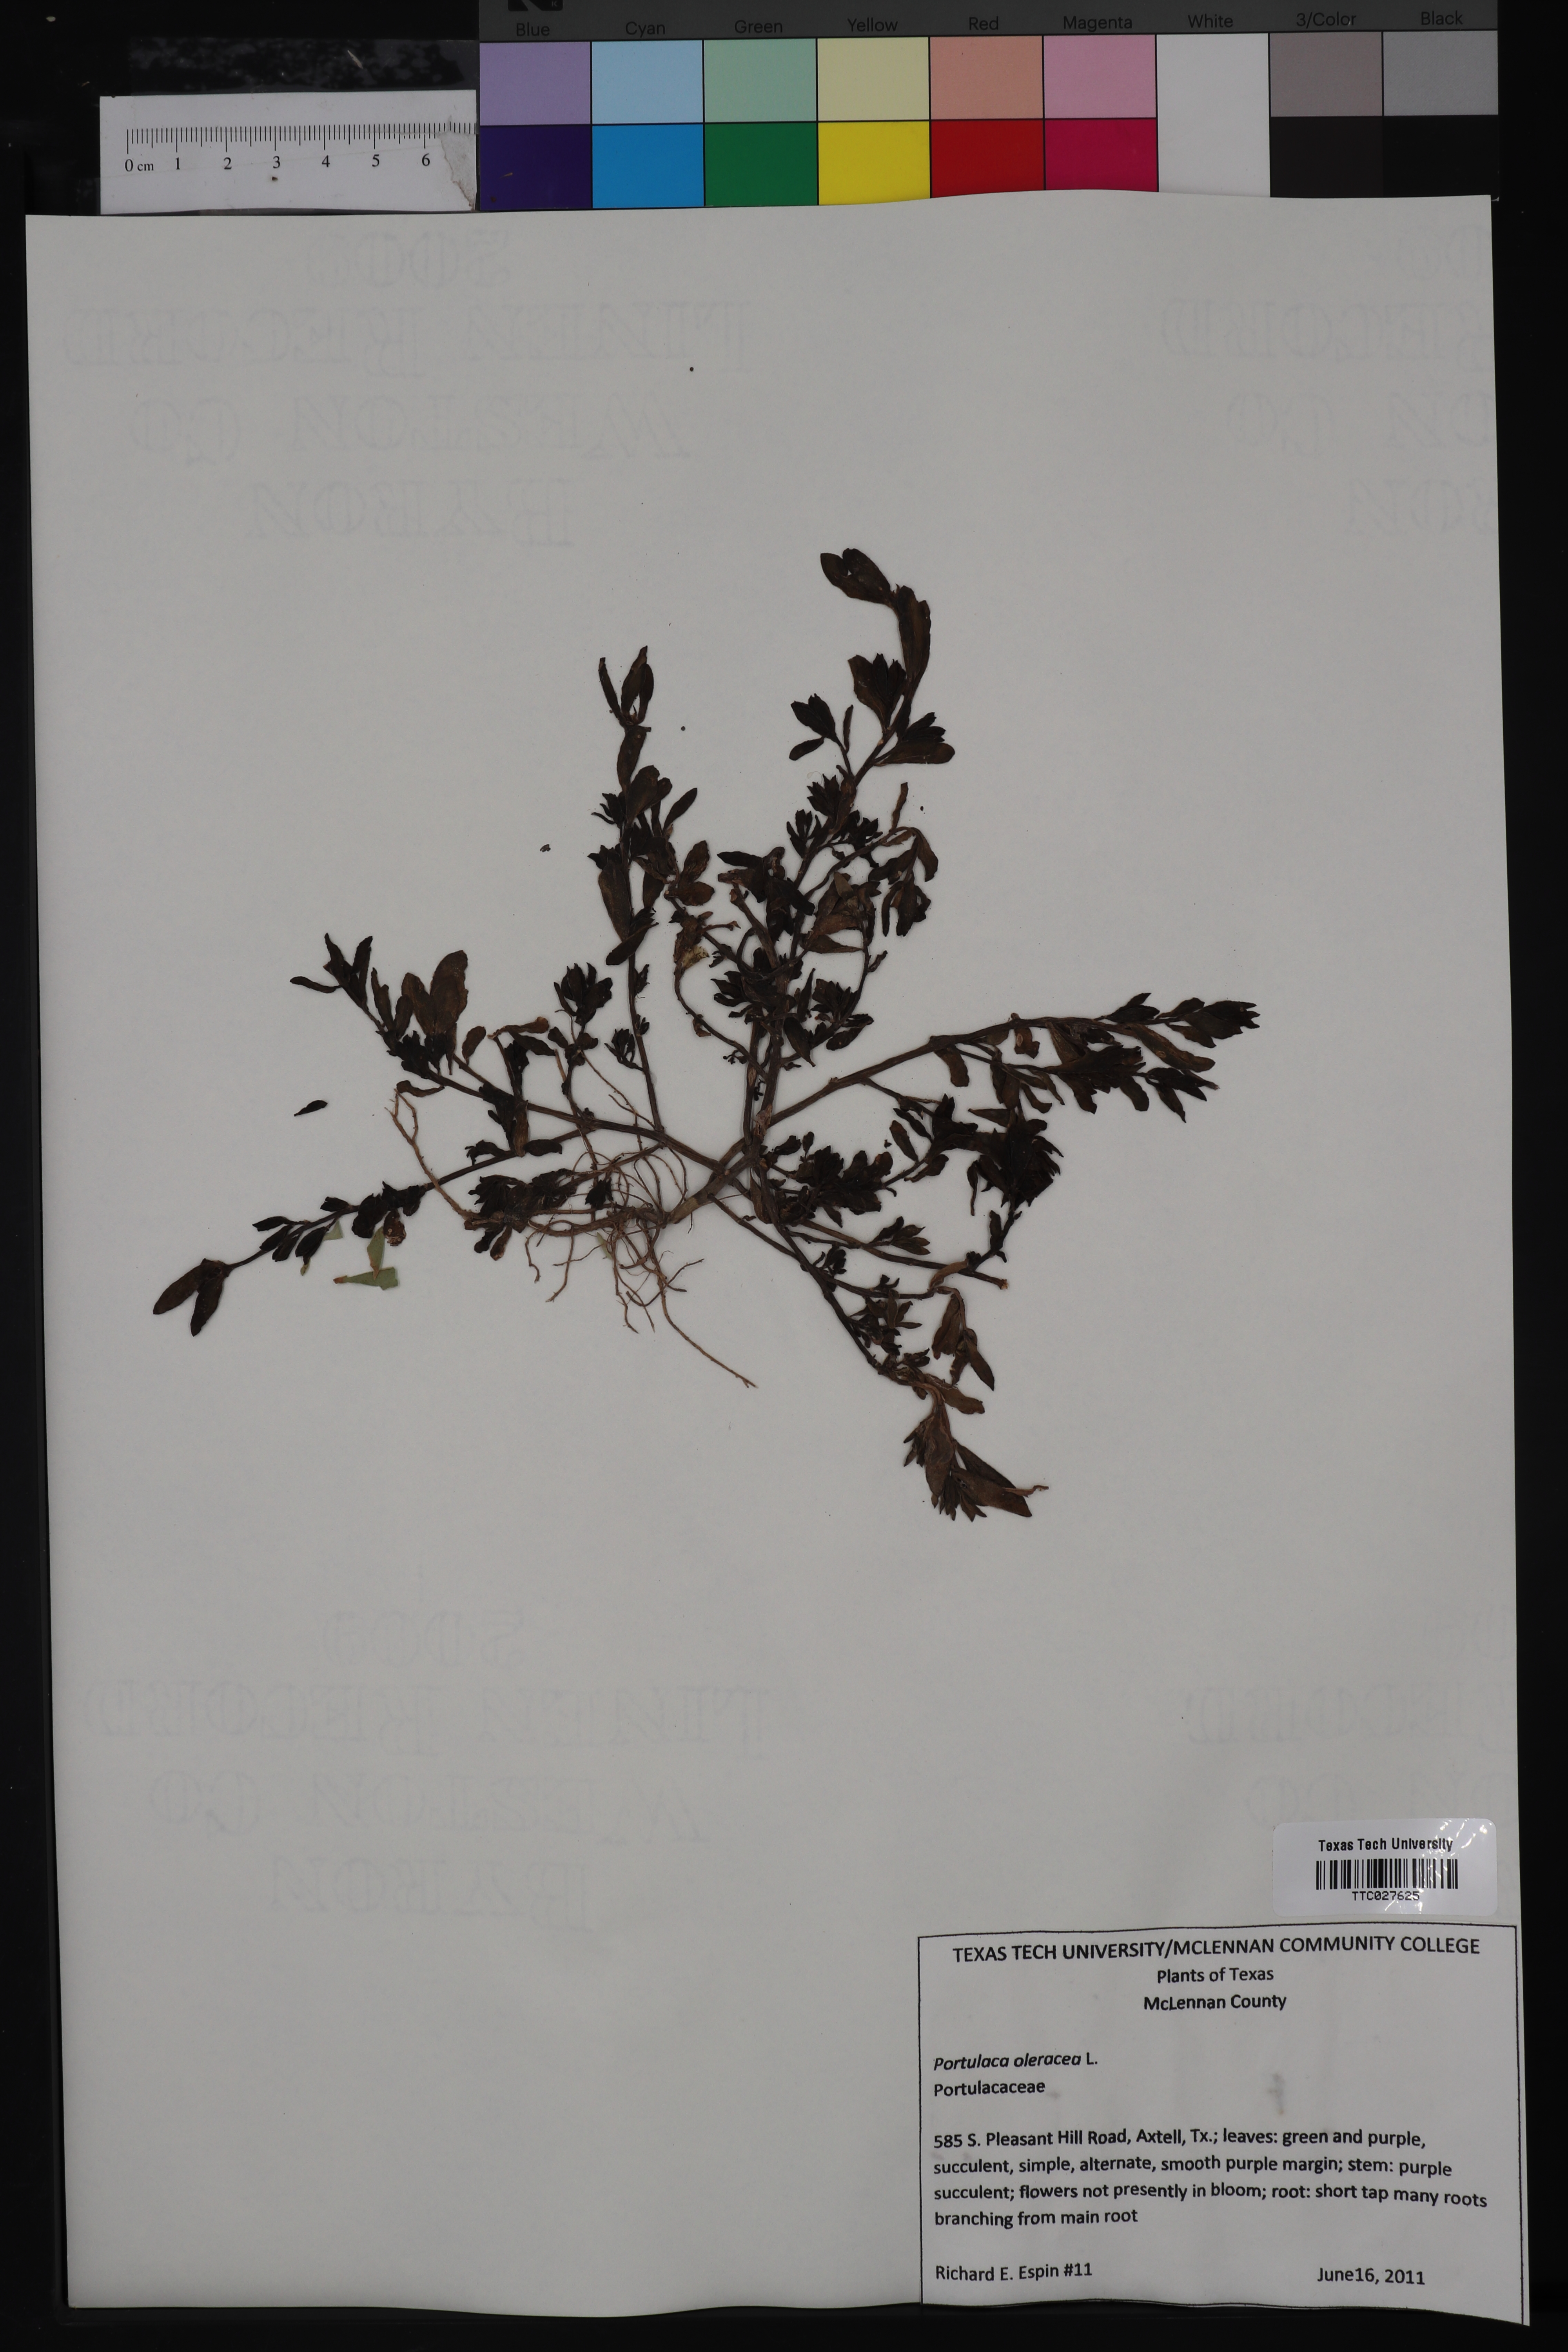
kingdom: Plantae
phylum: Tracheophyta
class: Magnoliopsida
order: Caryophyllales
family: Portulacaceae
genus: Portulaca
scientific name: Portulaca oleracea
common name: Common purslane
